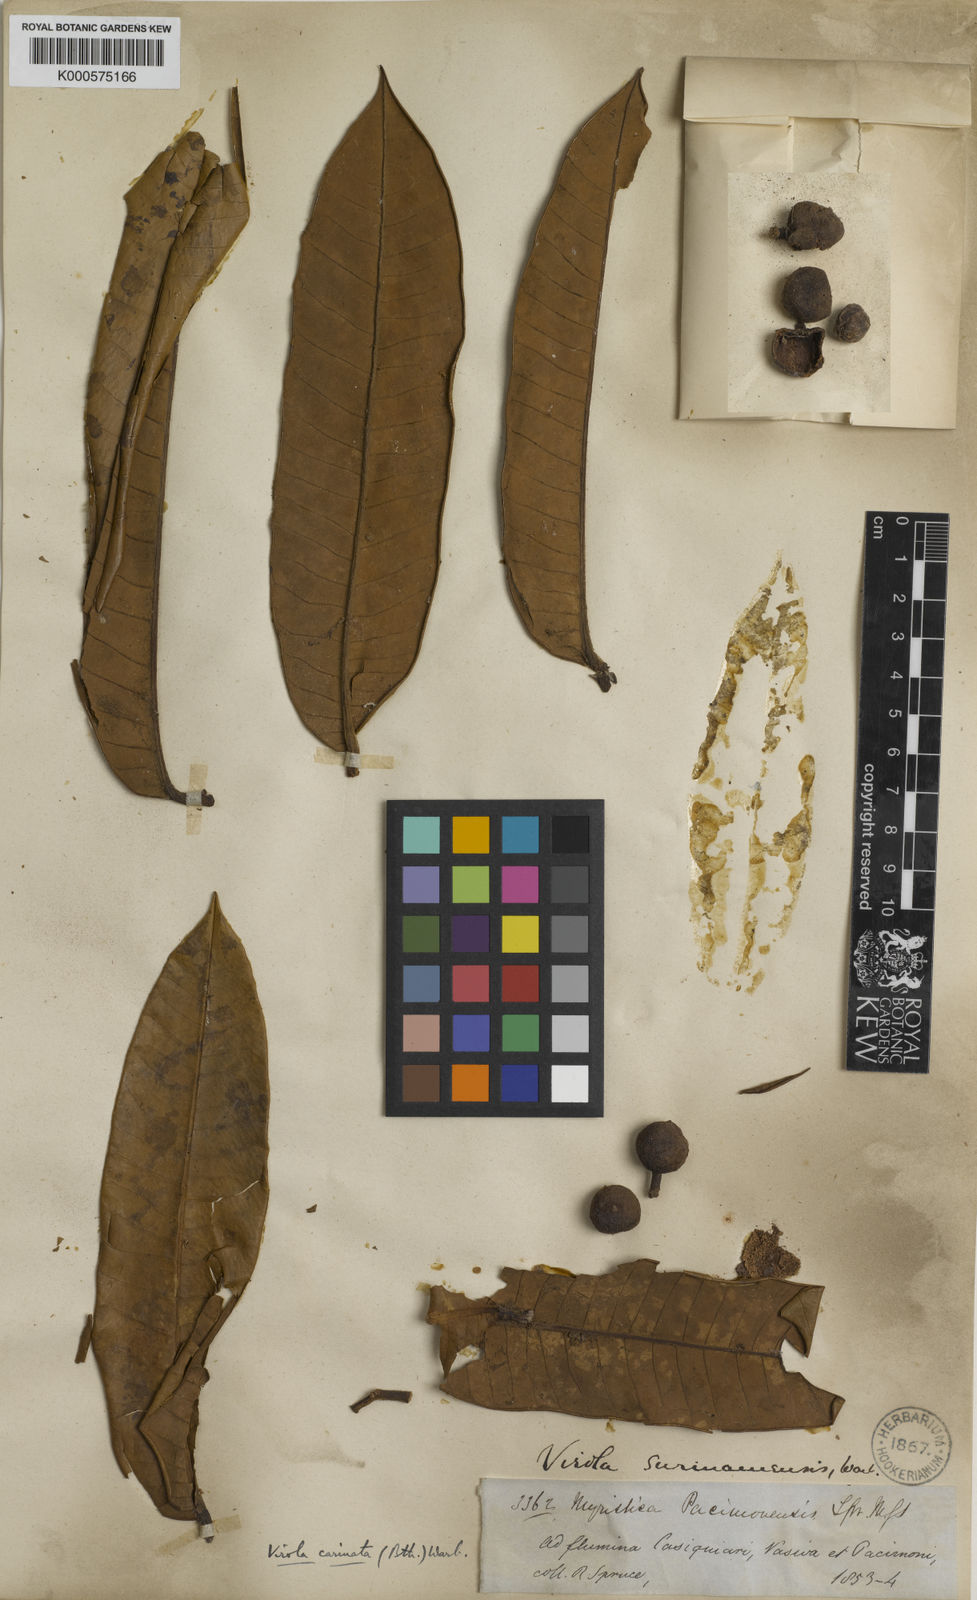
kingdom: Plantae
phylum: Tracheophyta
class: Magnoliopsida
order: Magnoliales
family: Myristicaceae
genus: Virola
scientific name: Virola carinata
